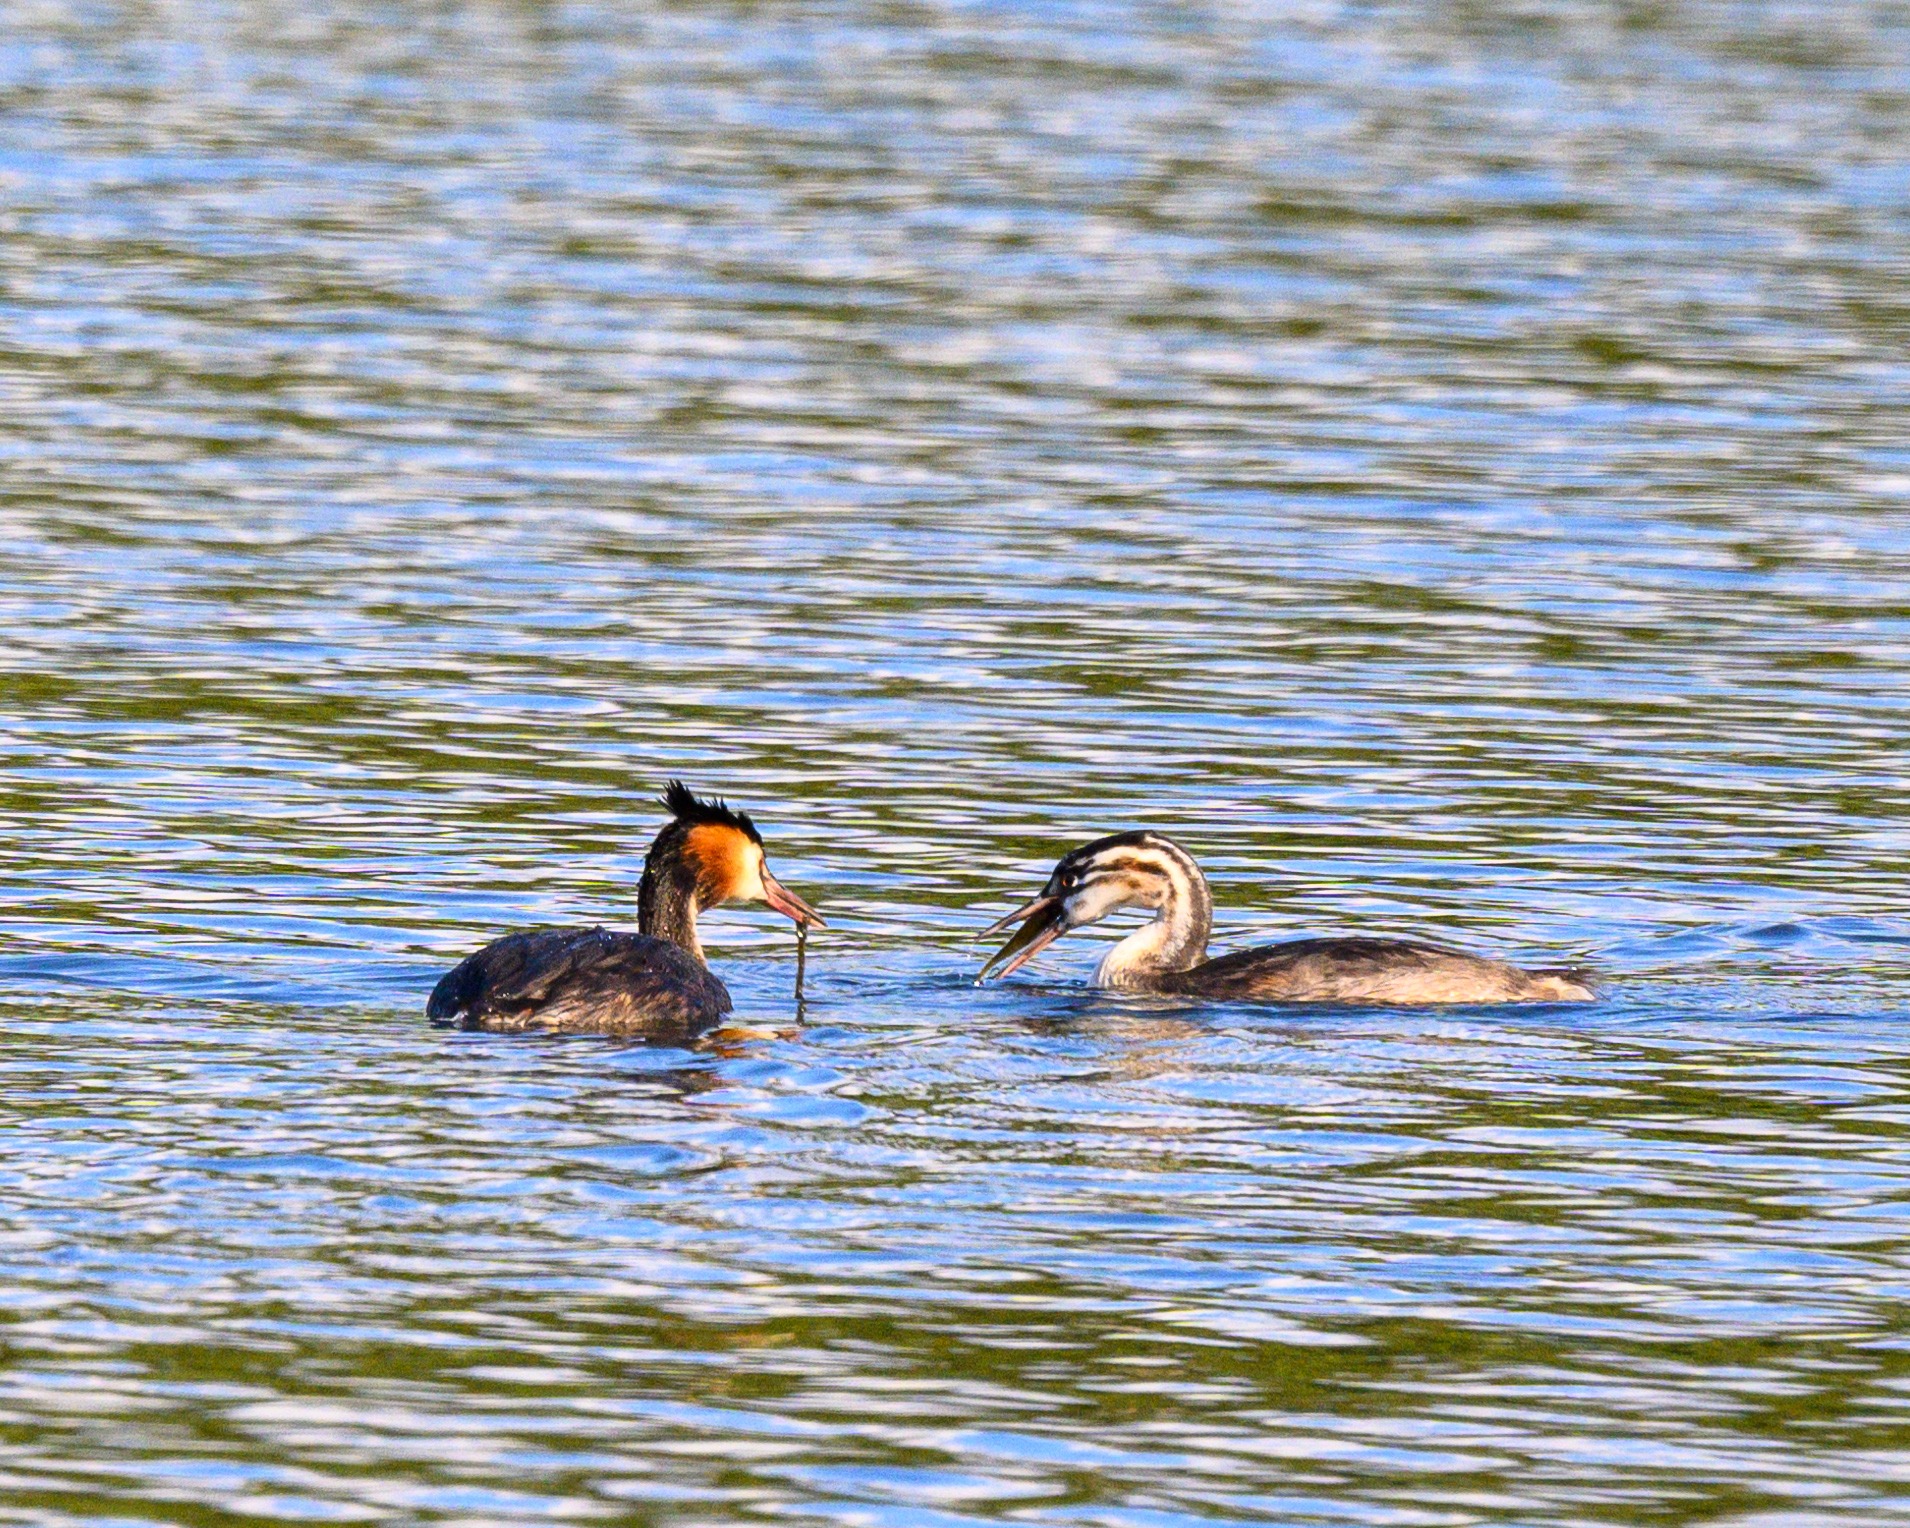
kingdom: Animalia
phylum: Chordata
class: Aves
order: Podicipediformes
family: Podicipedidae
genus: Podiceps
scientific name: Podiceps cristatus
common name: Toppet lappedykker
